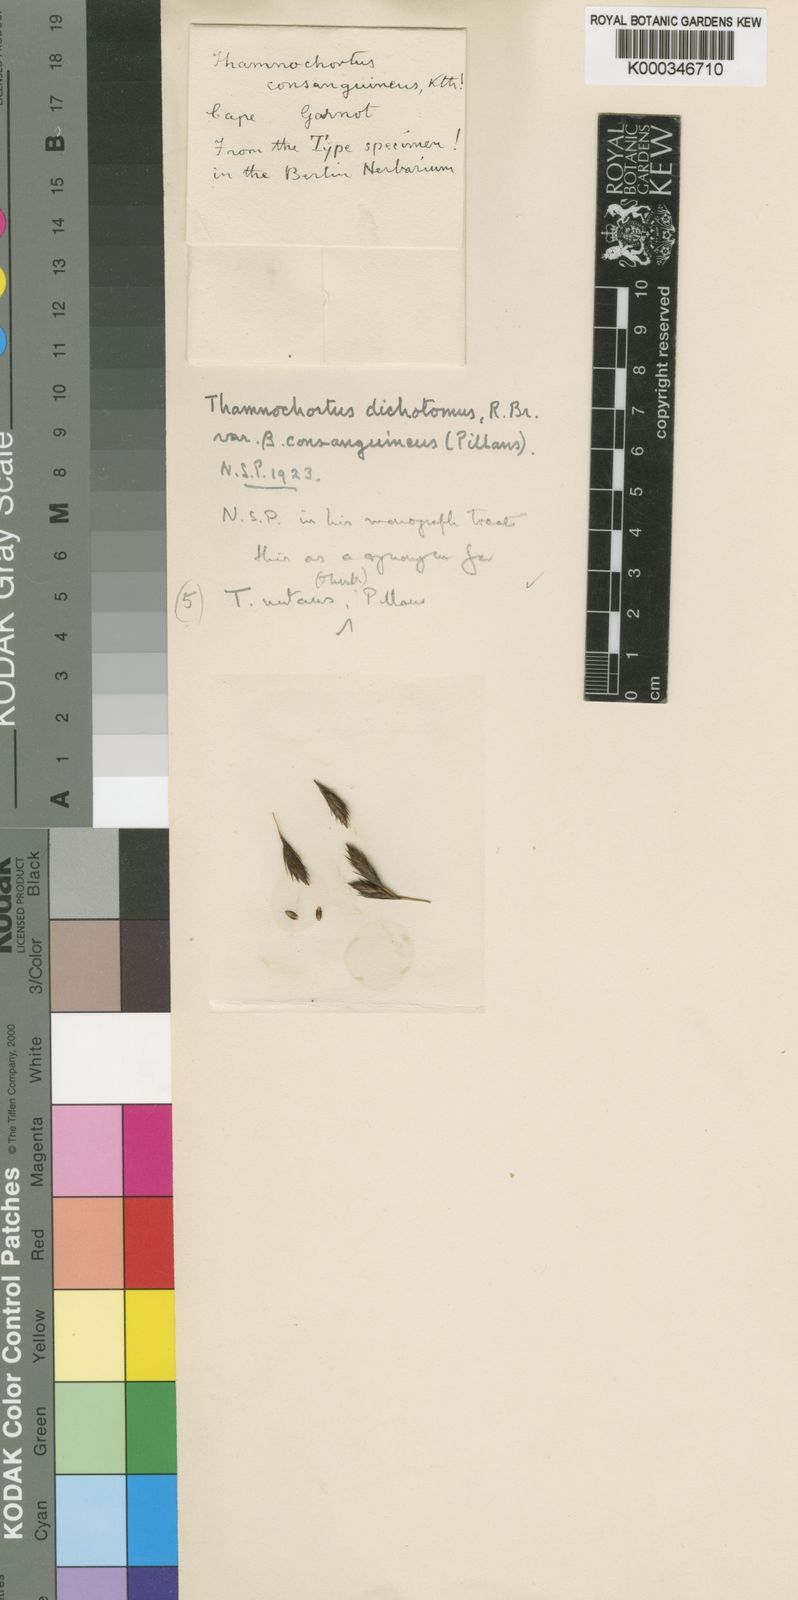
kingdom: Plantae
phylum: Tracheophyta
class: Liliopsida
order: Poales
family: Restionaceae
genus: Thamnochortus
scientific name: Thamnochortus nutans
